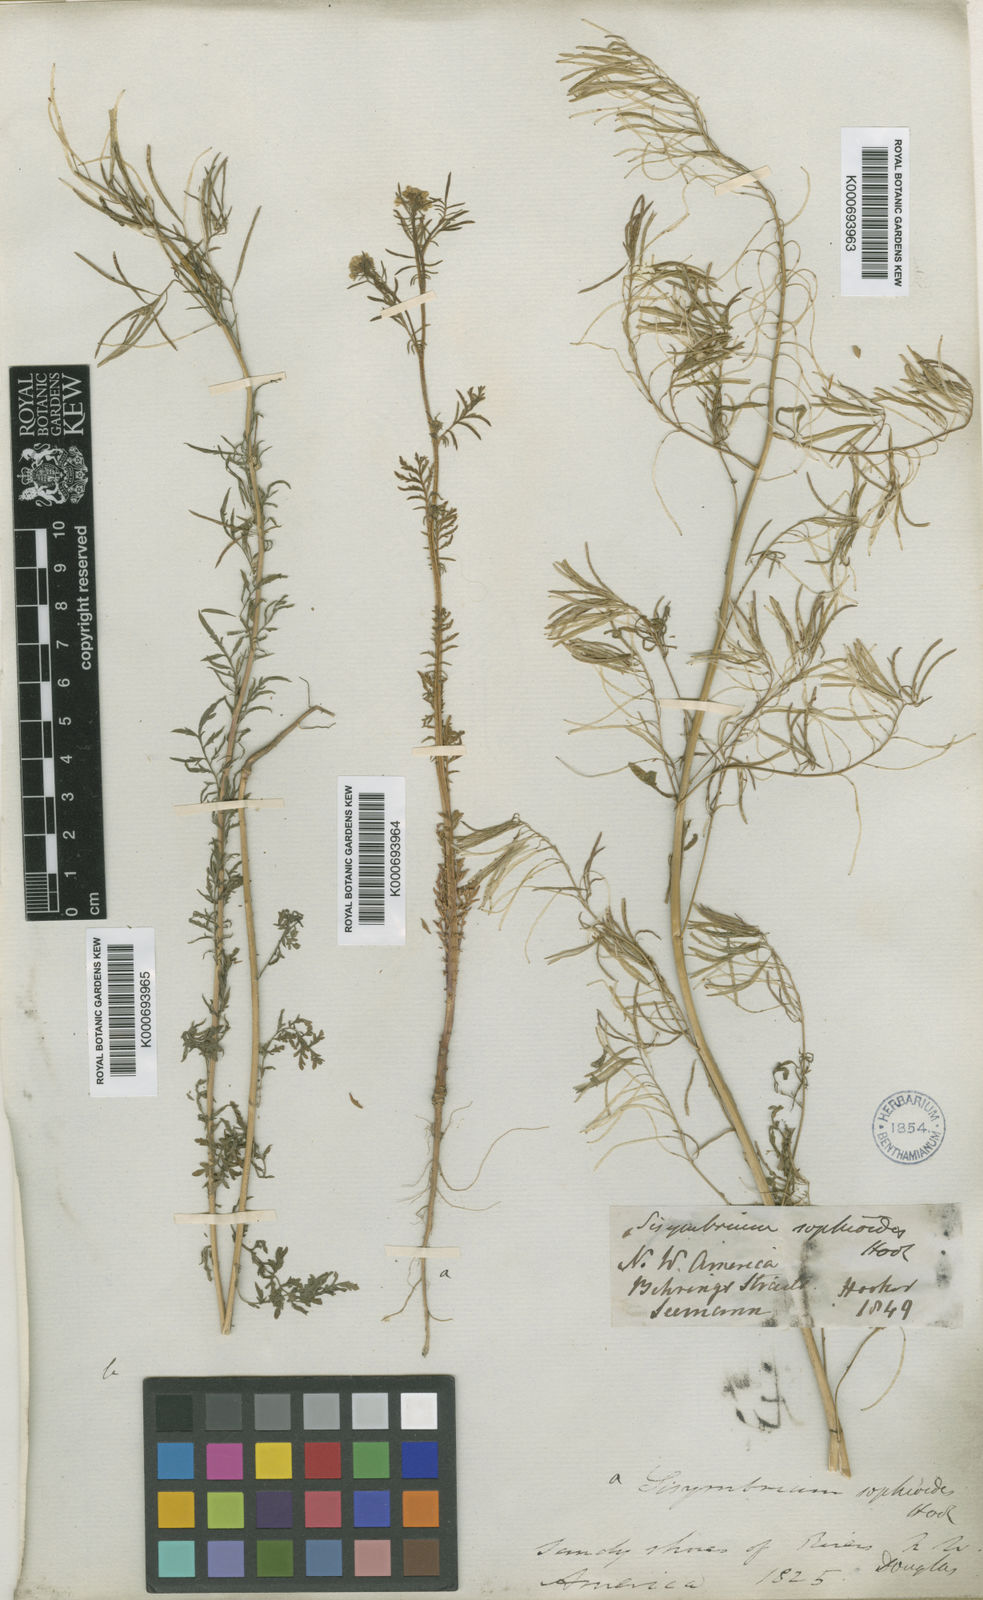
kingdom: Plantae
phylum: Tracheophyta
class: Magnoliopsida
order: Brassicales
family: Brassicaceae
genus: Descurainia
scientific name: Descurainia sophia
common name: Flixweed
